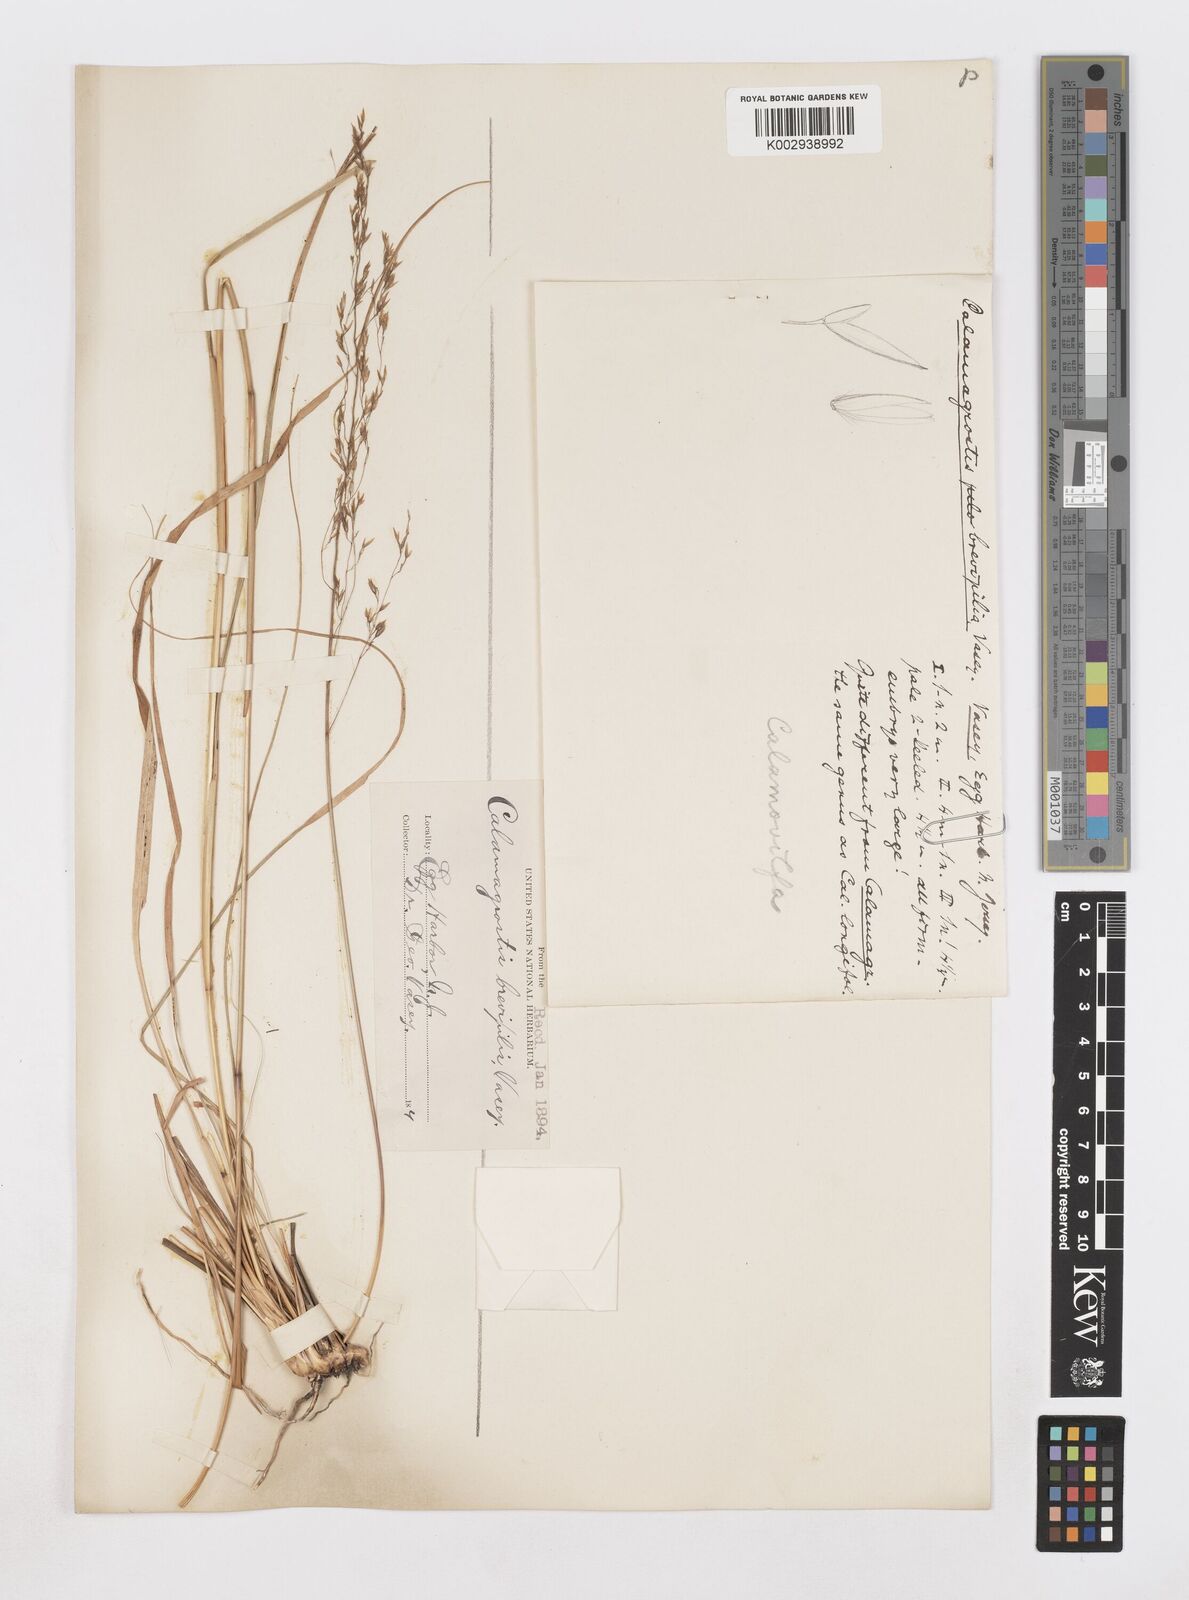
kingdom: Plantae
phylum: Tracheophyta
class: Liliopsida
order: Poales
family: Poaceae
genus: Sporobolus
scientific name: Sporobolus brevipilis
